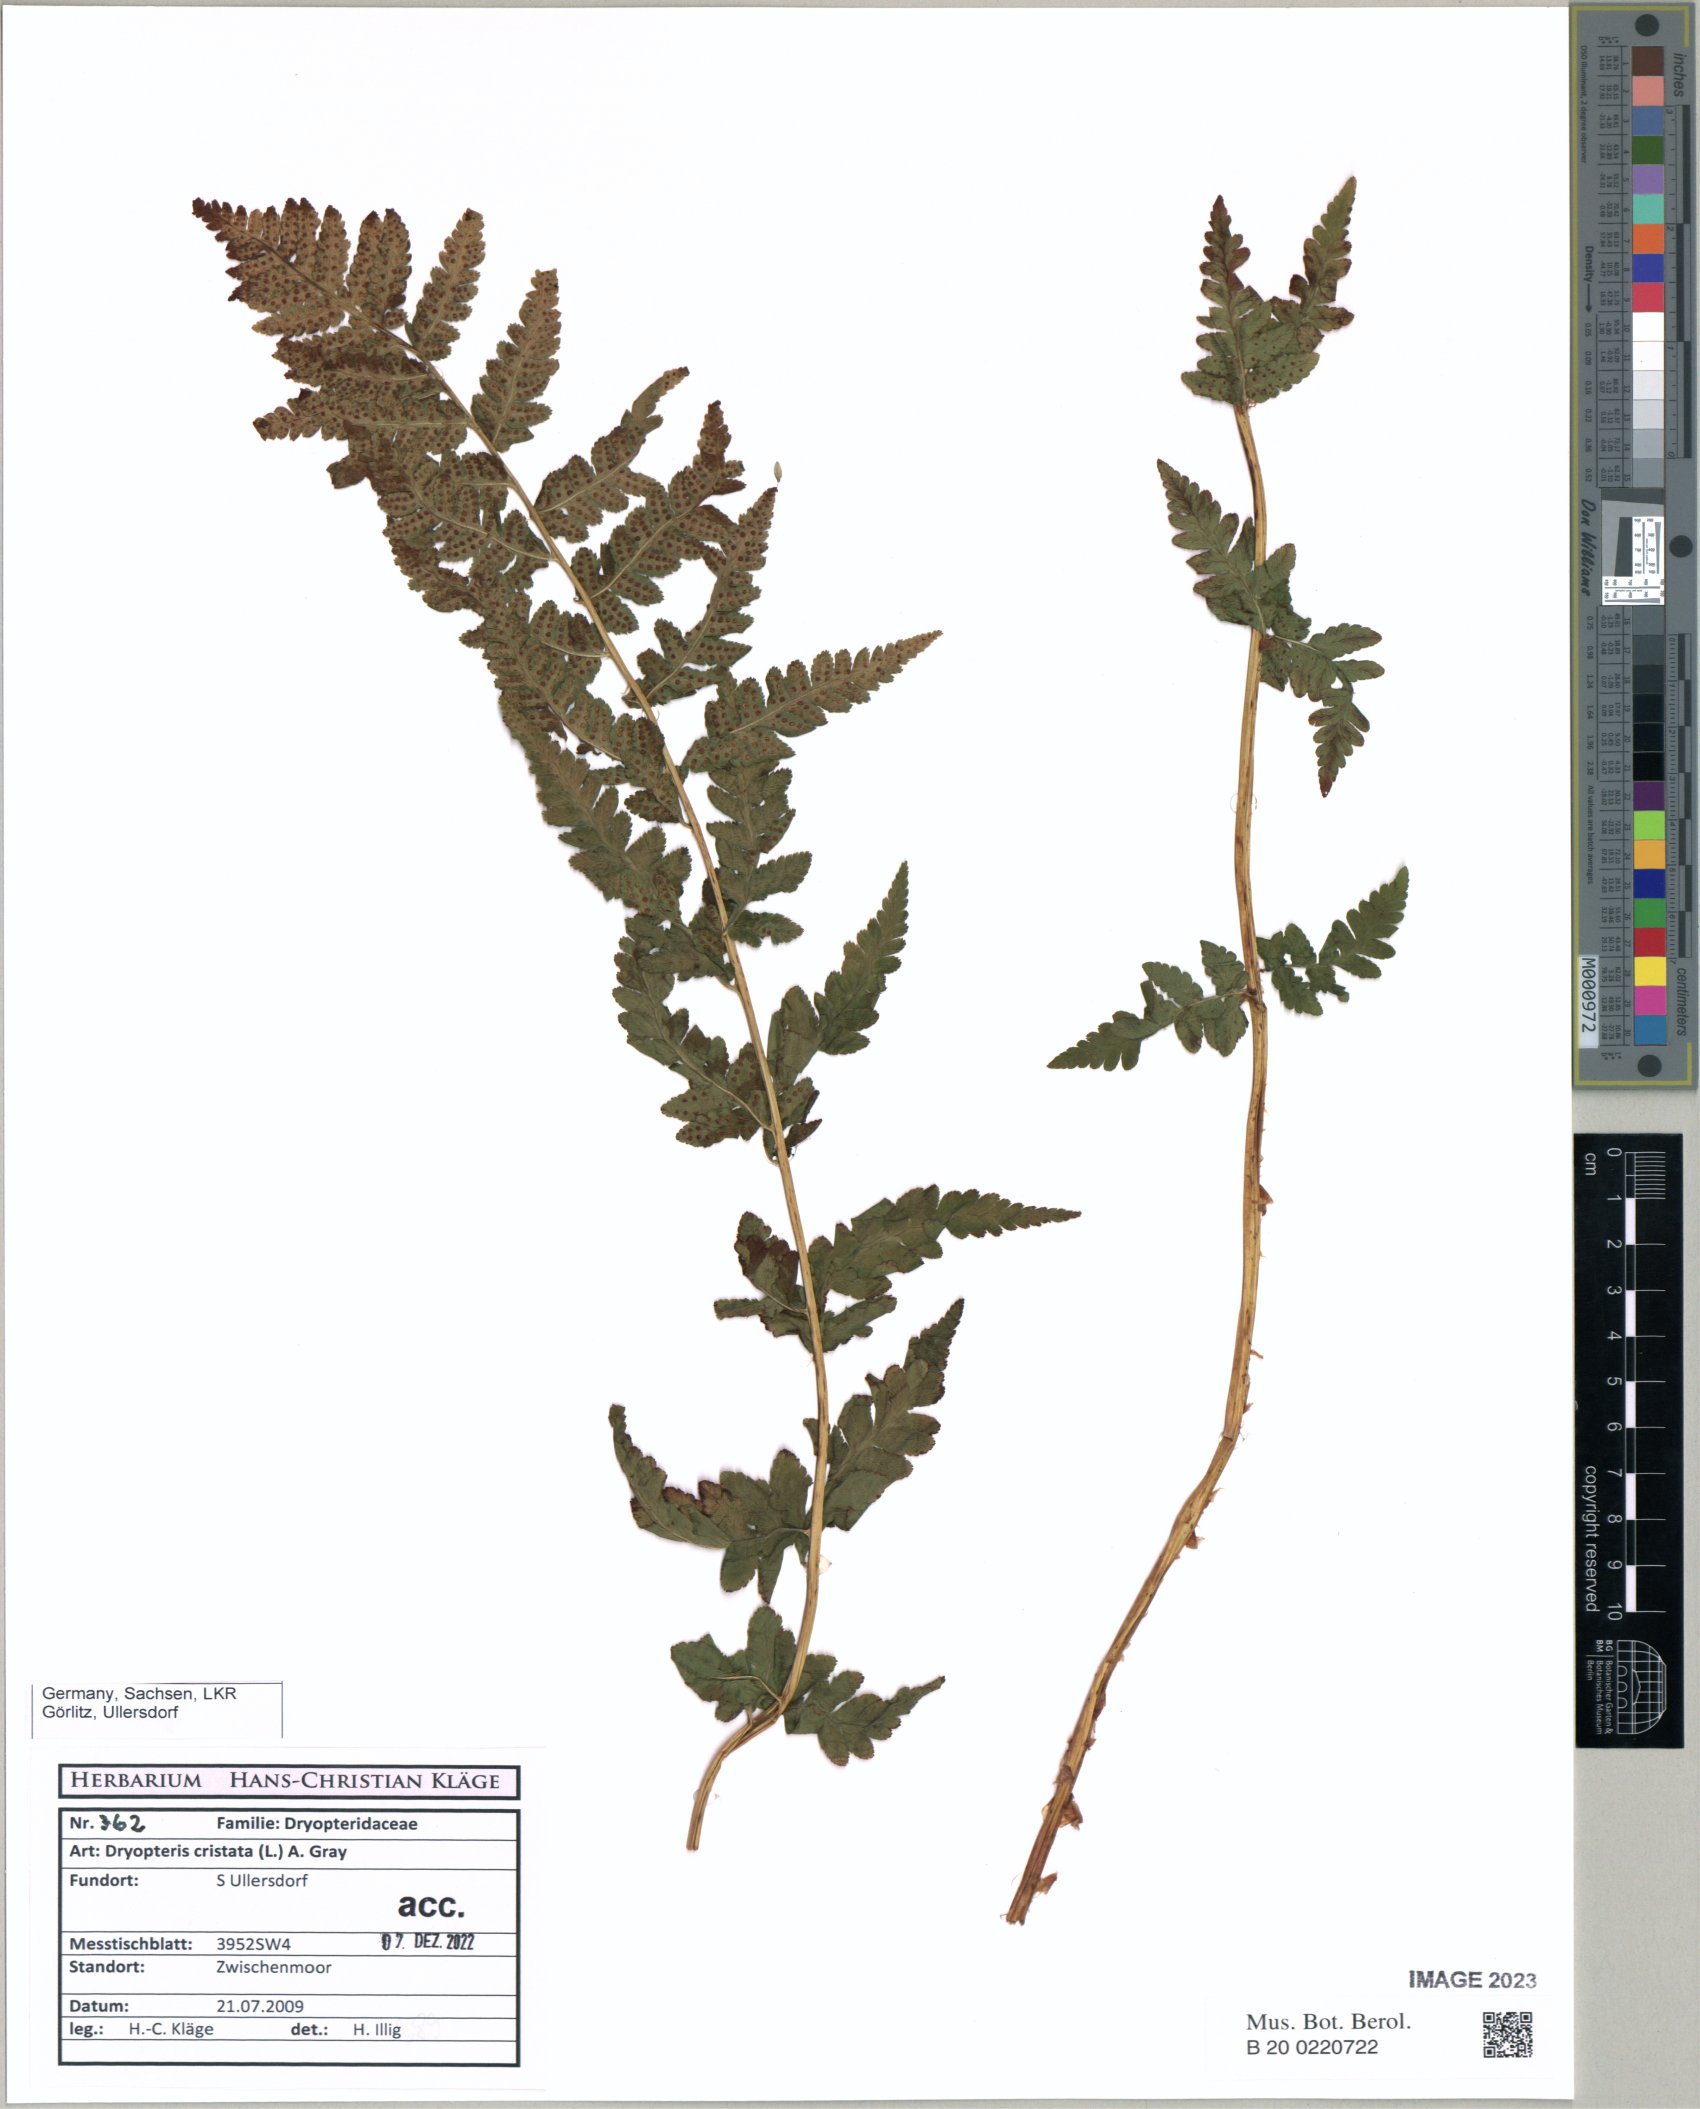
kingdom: Plantae
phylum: Tracheophyta
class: Polypodiopsida
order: Polypodiales
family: Dryopteridaceae
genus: Dryopteris
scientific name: Dryopteris cristata
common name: Crested wood fern
